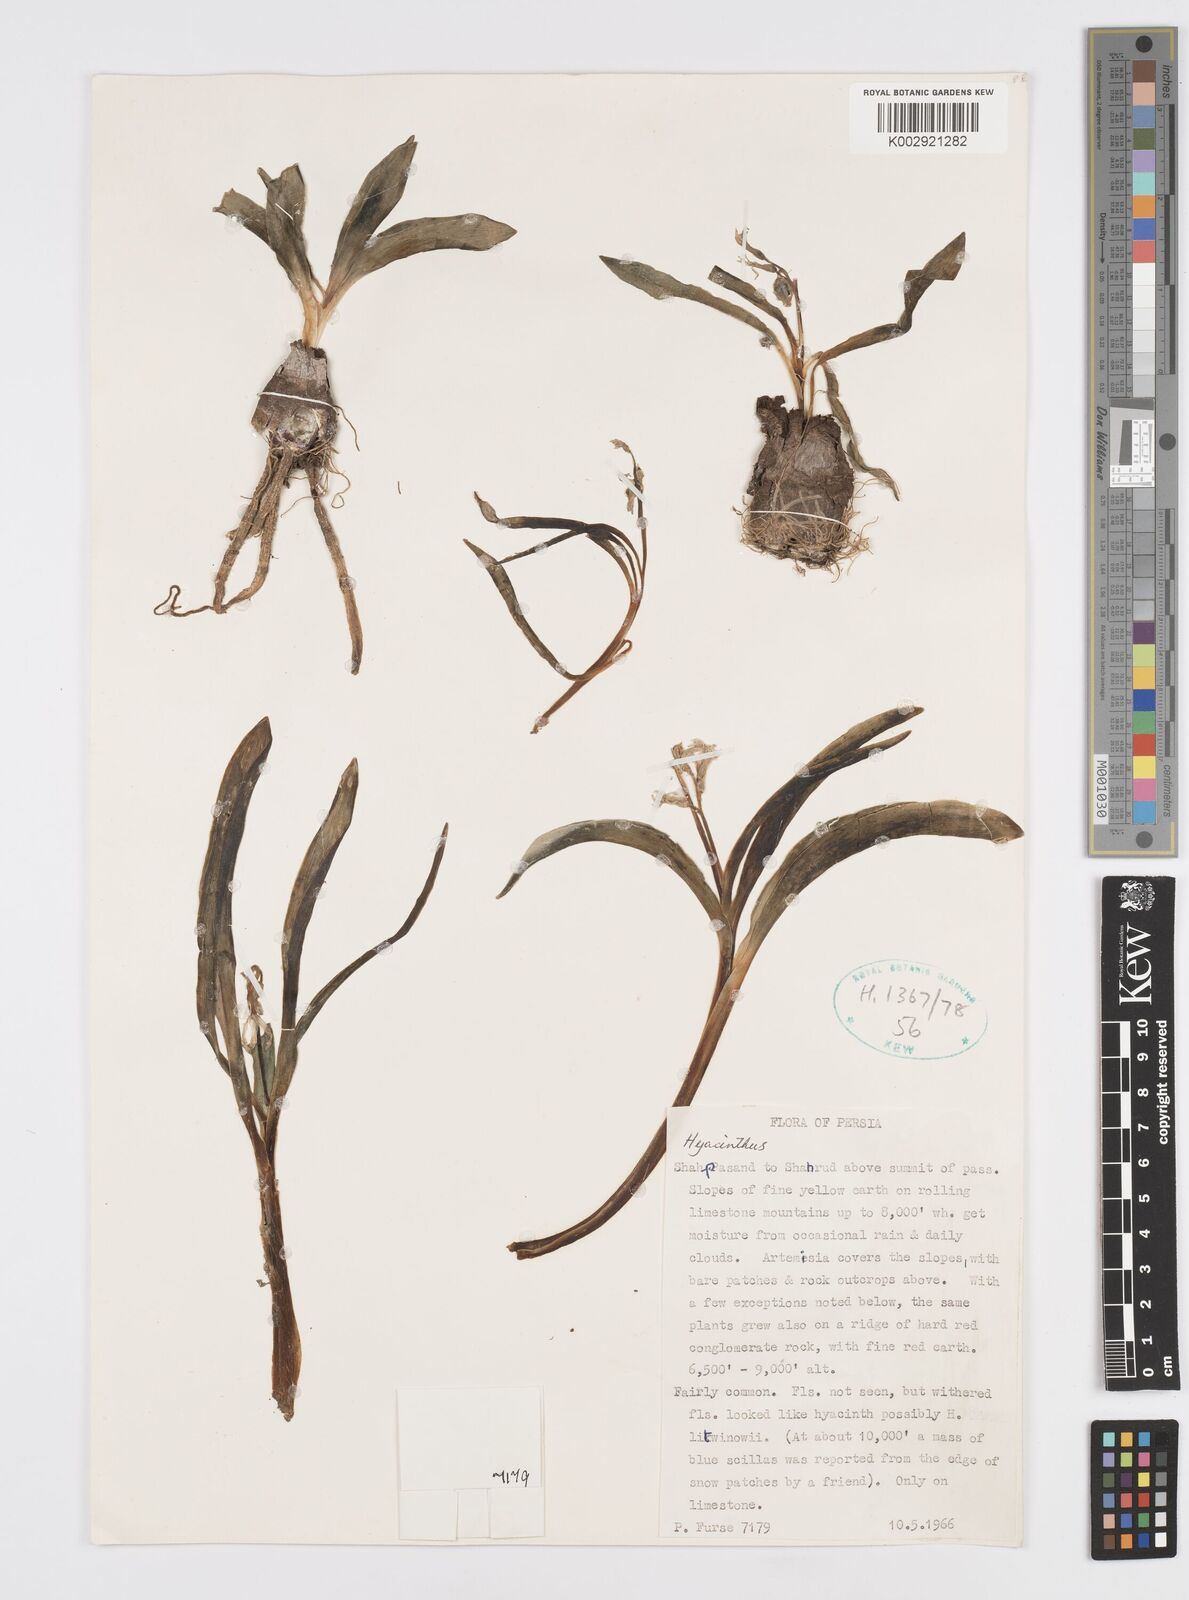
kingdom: Plantae
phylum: Tracheophyta
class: Liliopsida
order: Asparagales
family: Asparagaceae
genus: Hyacinthus
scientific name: Hyacinthus
